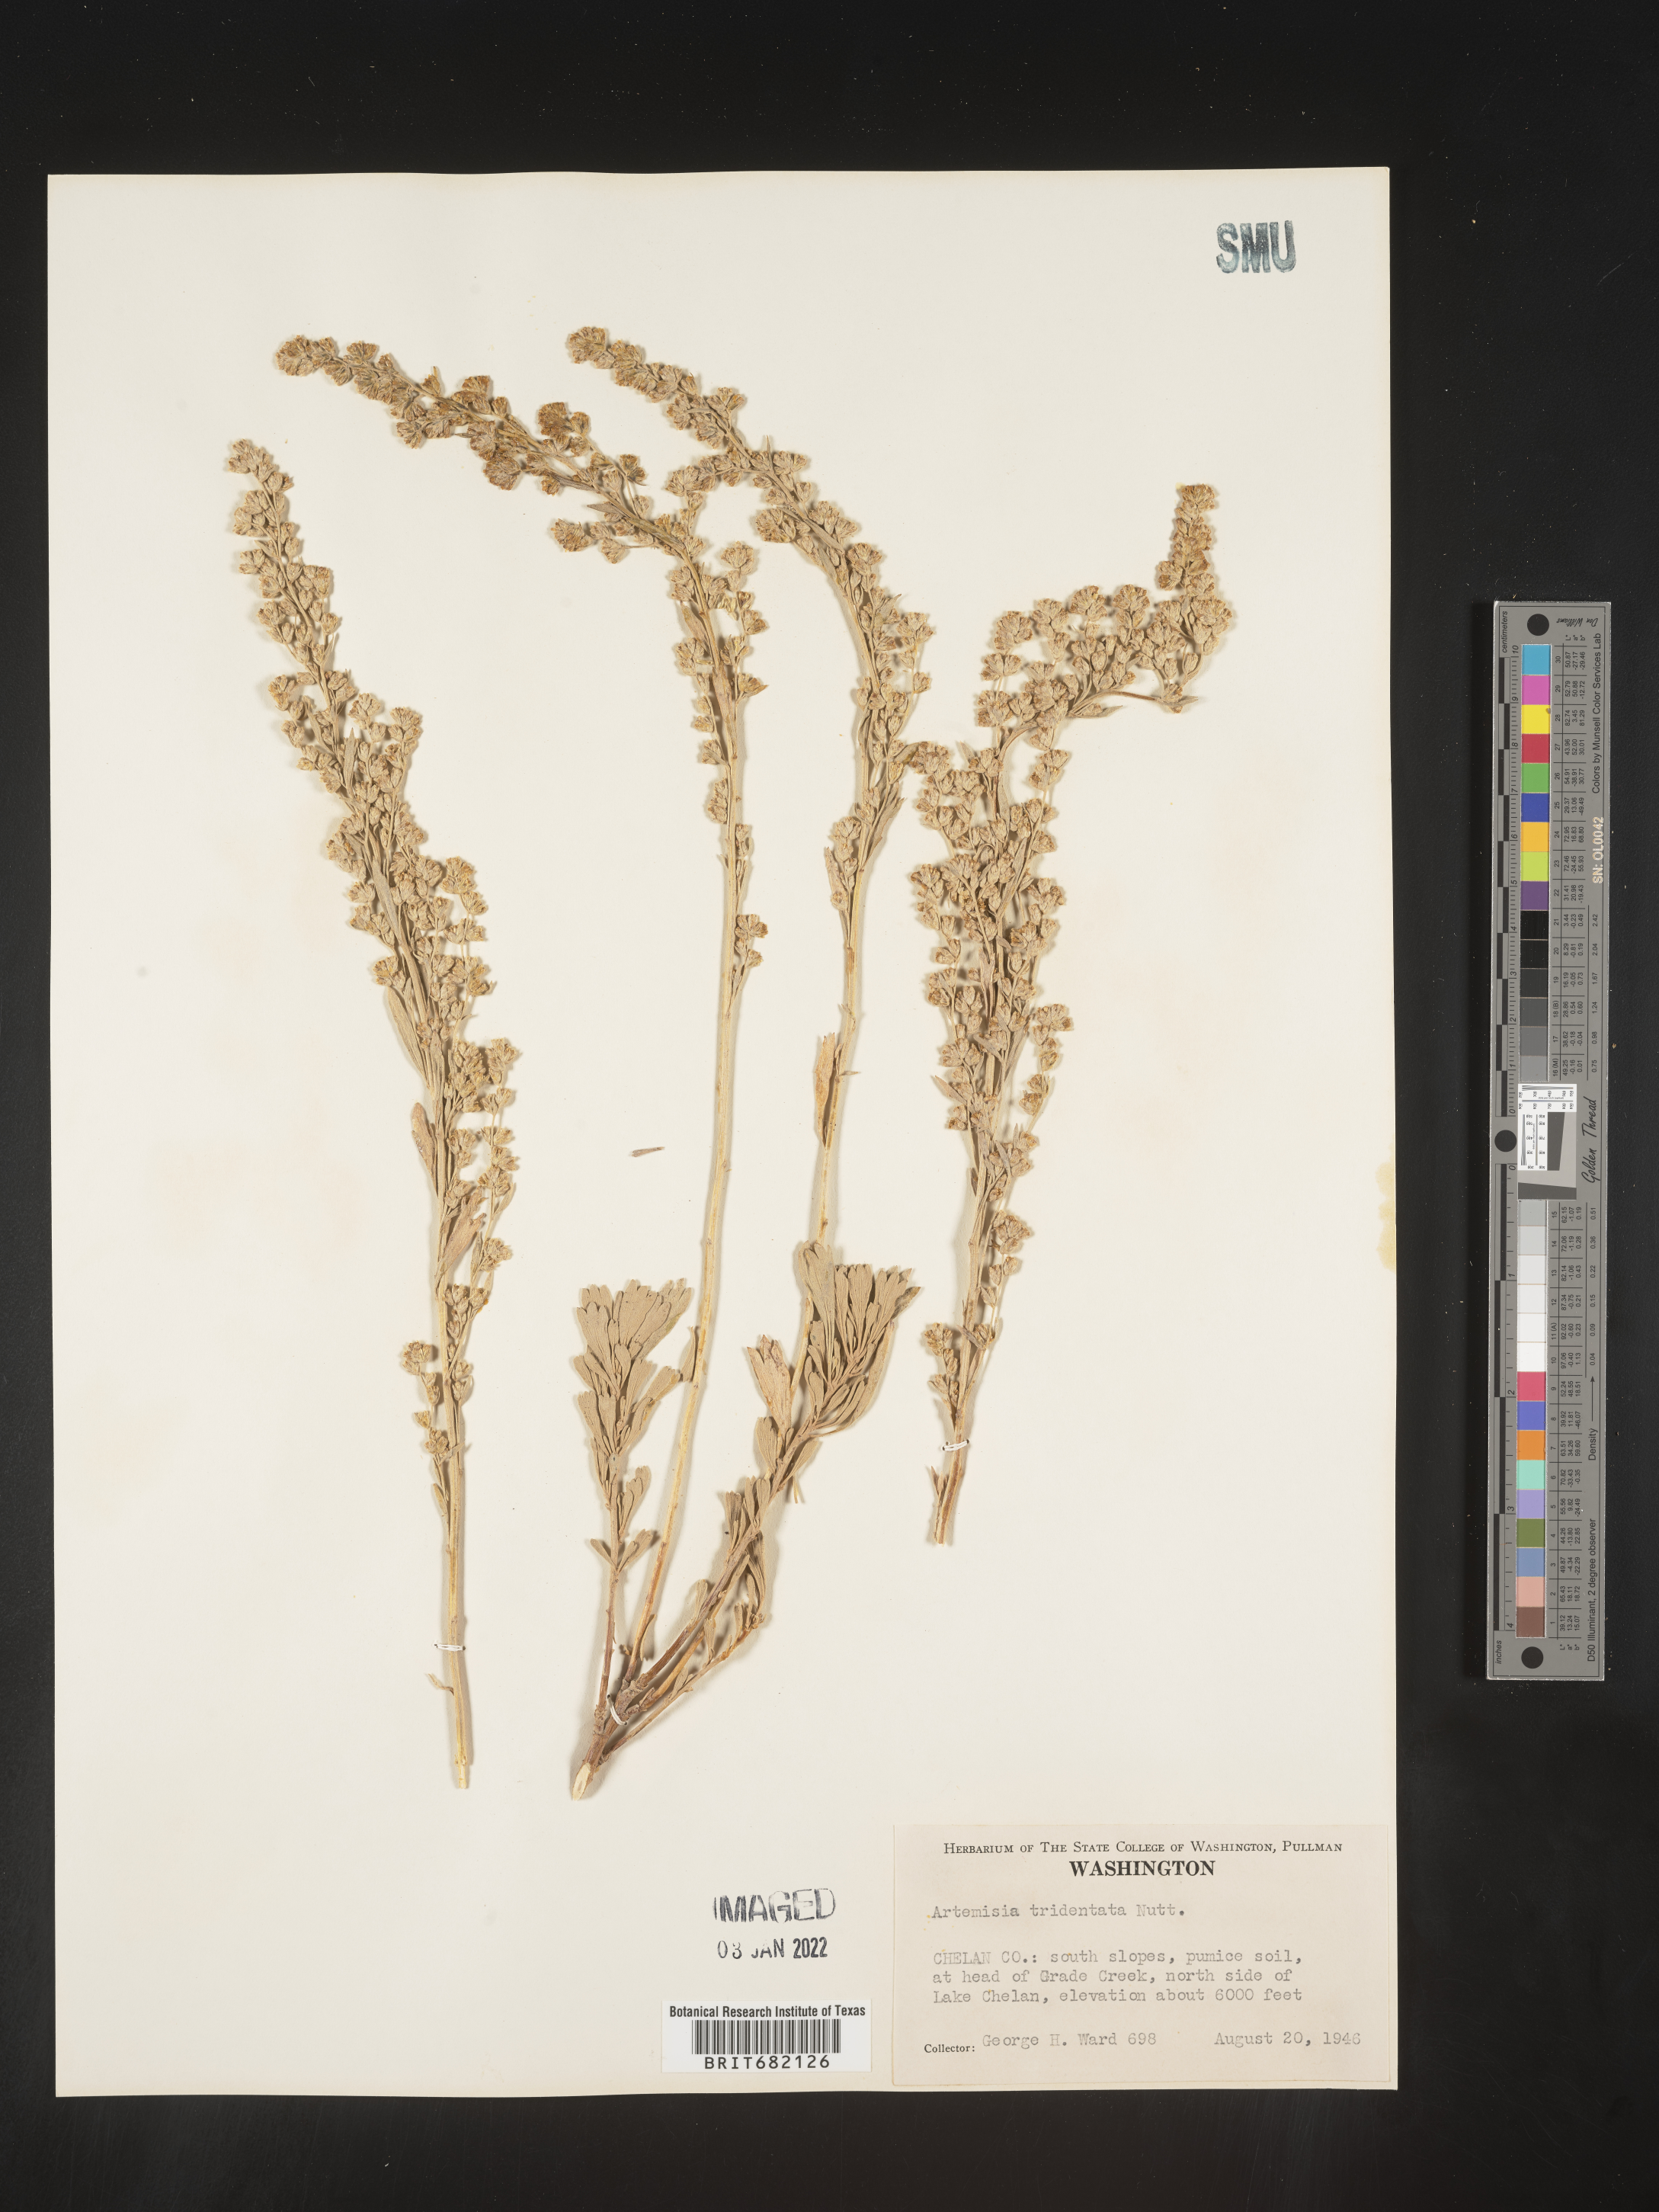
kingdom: Plantae
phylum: Tracheophyta
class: Magnoliopsida
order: Asterales
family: Asteraceae
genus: Artemisia
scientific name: Artemisia tridentata
